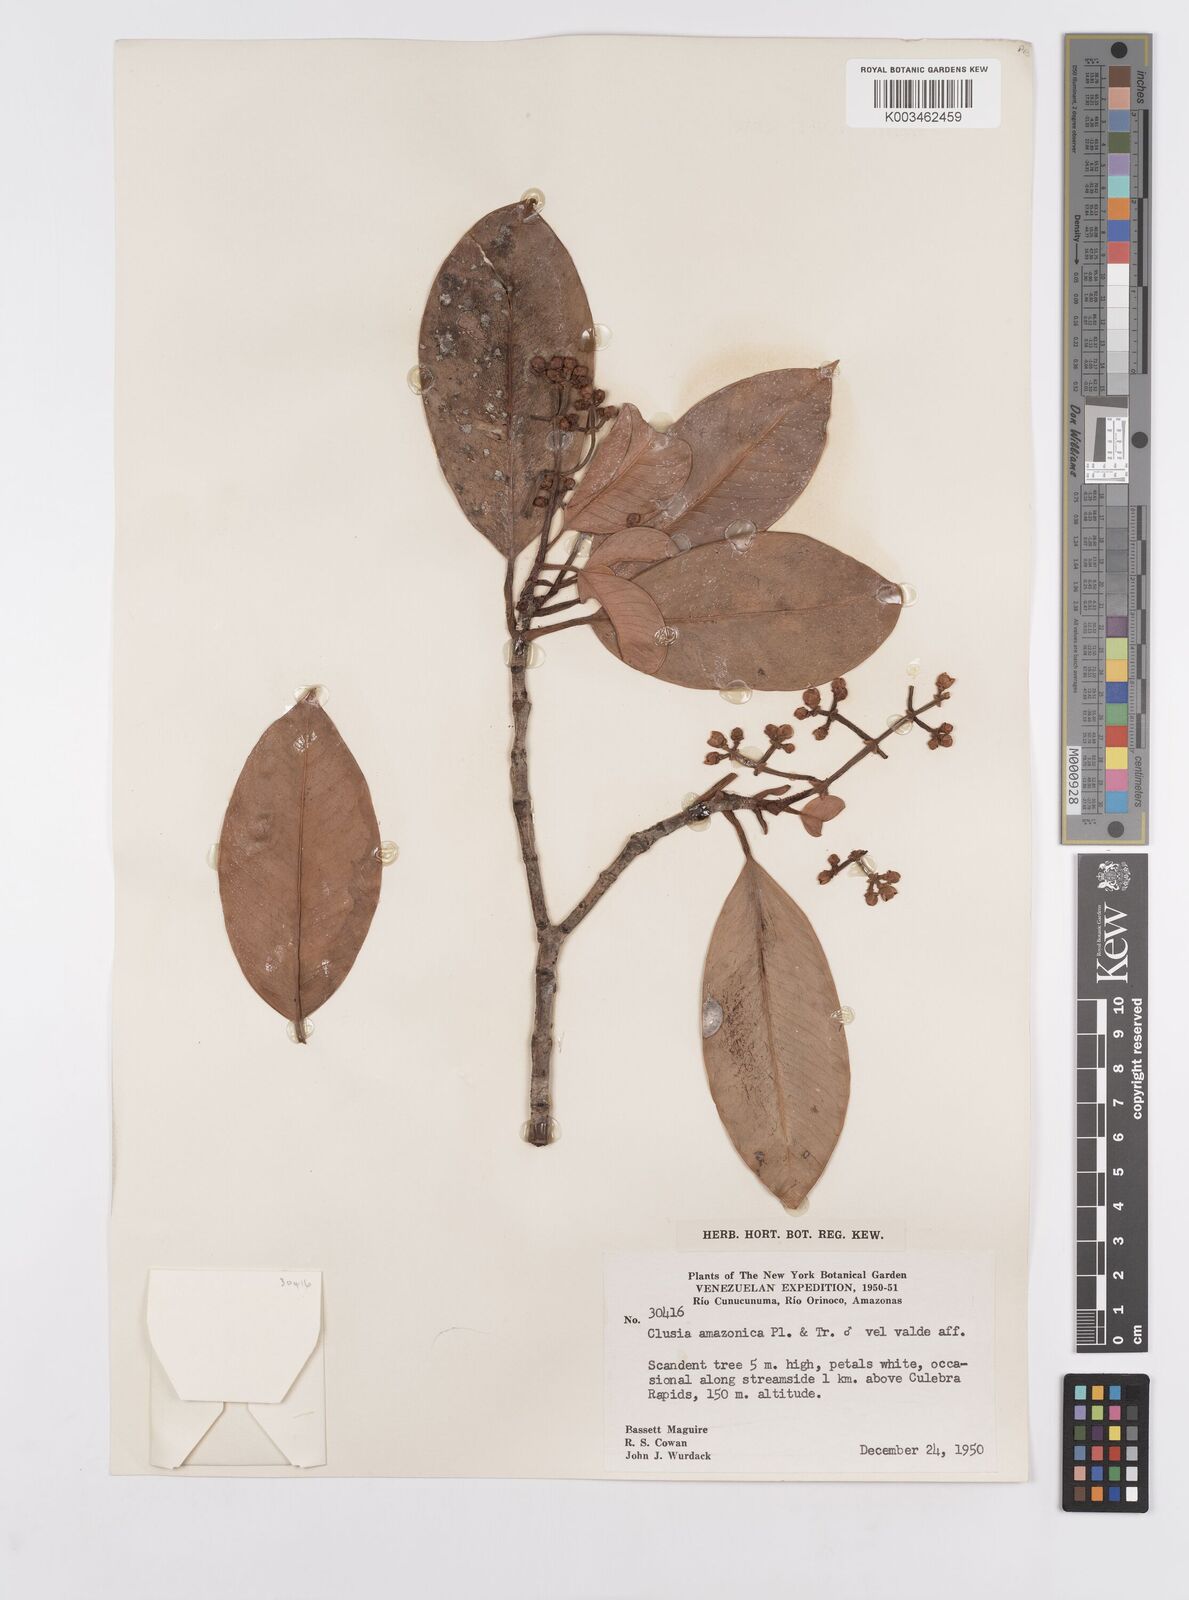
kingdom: Plantae
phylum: Tracheophyta
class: Magnoliopsida
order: Malpighiales
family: Clusiaceae
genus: Clusia
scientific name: Clusia amazonica
